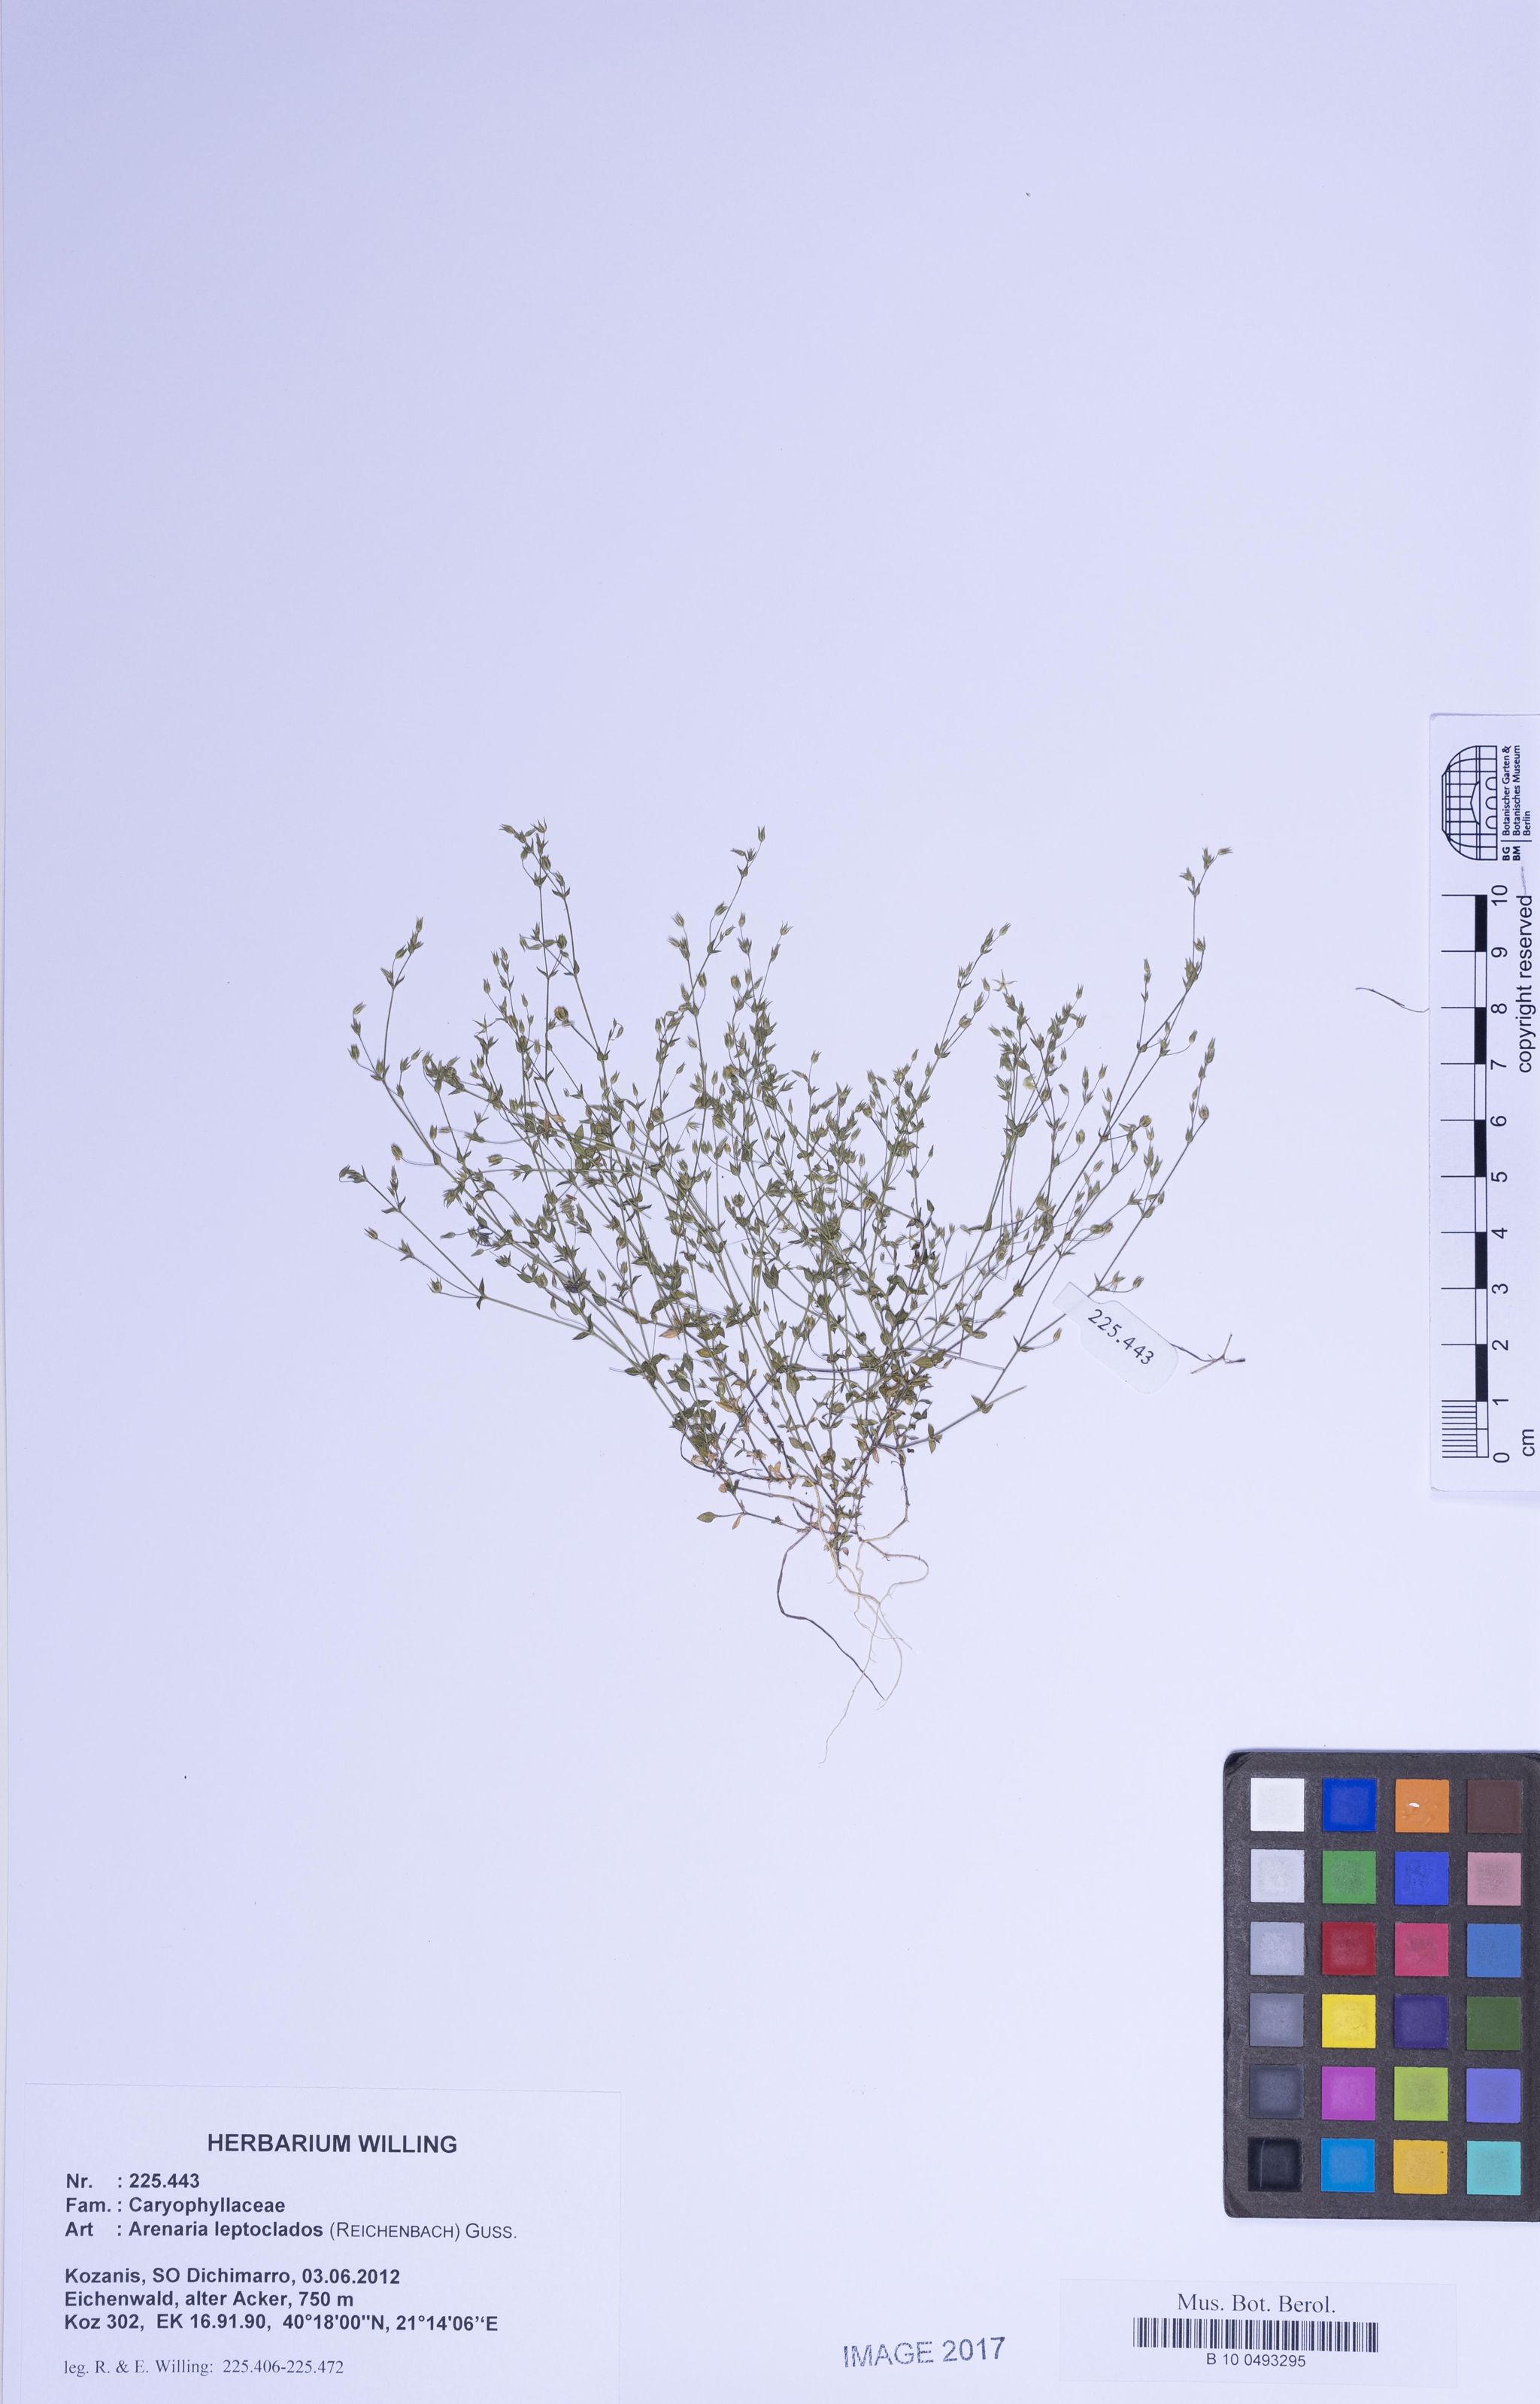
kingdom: Plantae
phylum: Tracheophyta
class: Magnoliopsida
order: Caryophyllales
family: Caryophyllaceae
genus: Arenaria
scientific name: Arenaria leptoclados
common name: Thyme-leaved sandwort
